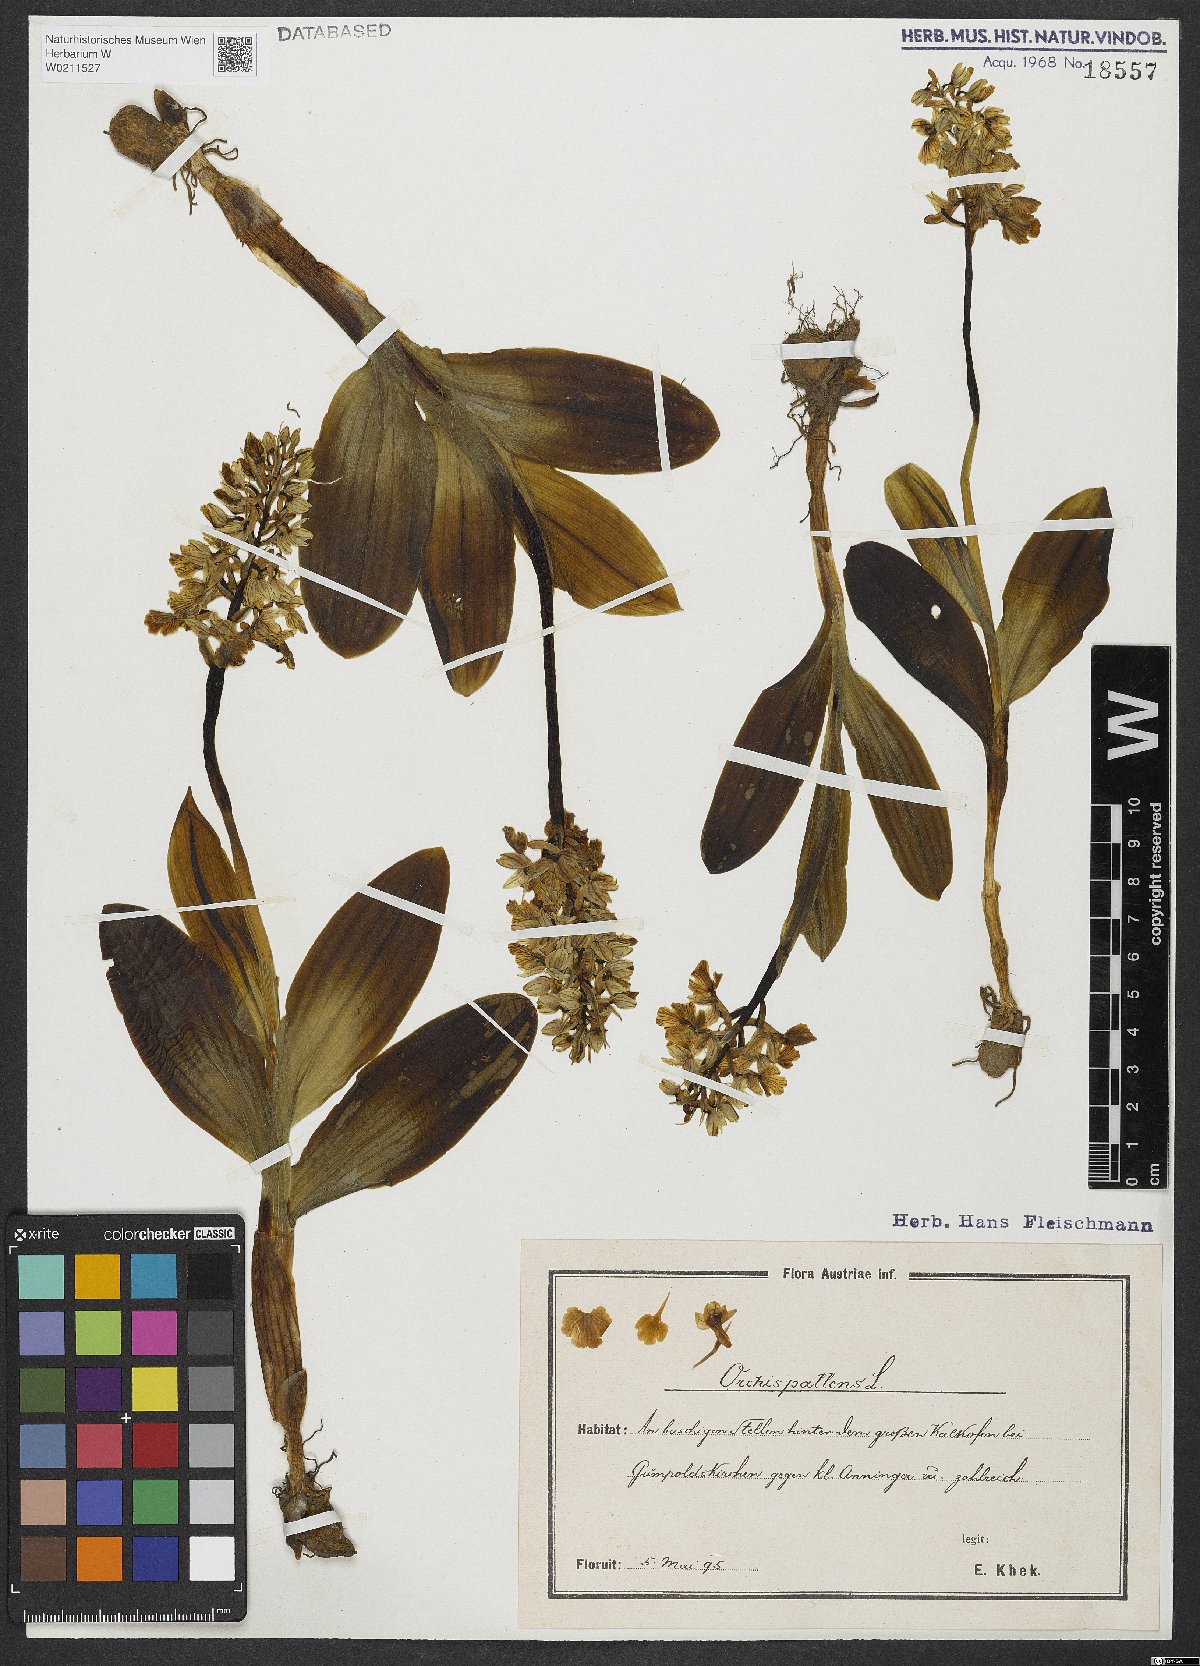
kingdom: Plantae
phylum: Tracheophyta
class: Liliopsida
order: Asparagales
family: Orchidaceae
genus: Orchis
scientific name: Orchis pallens
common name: Pale-flowered orchid
